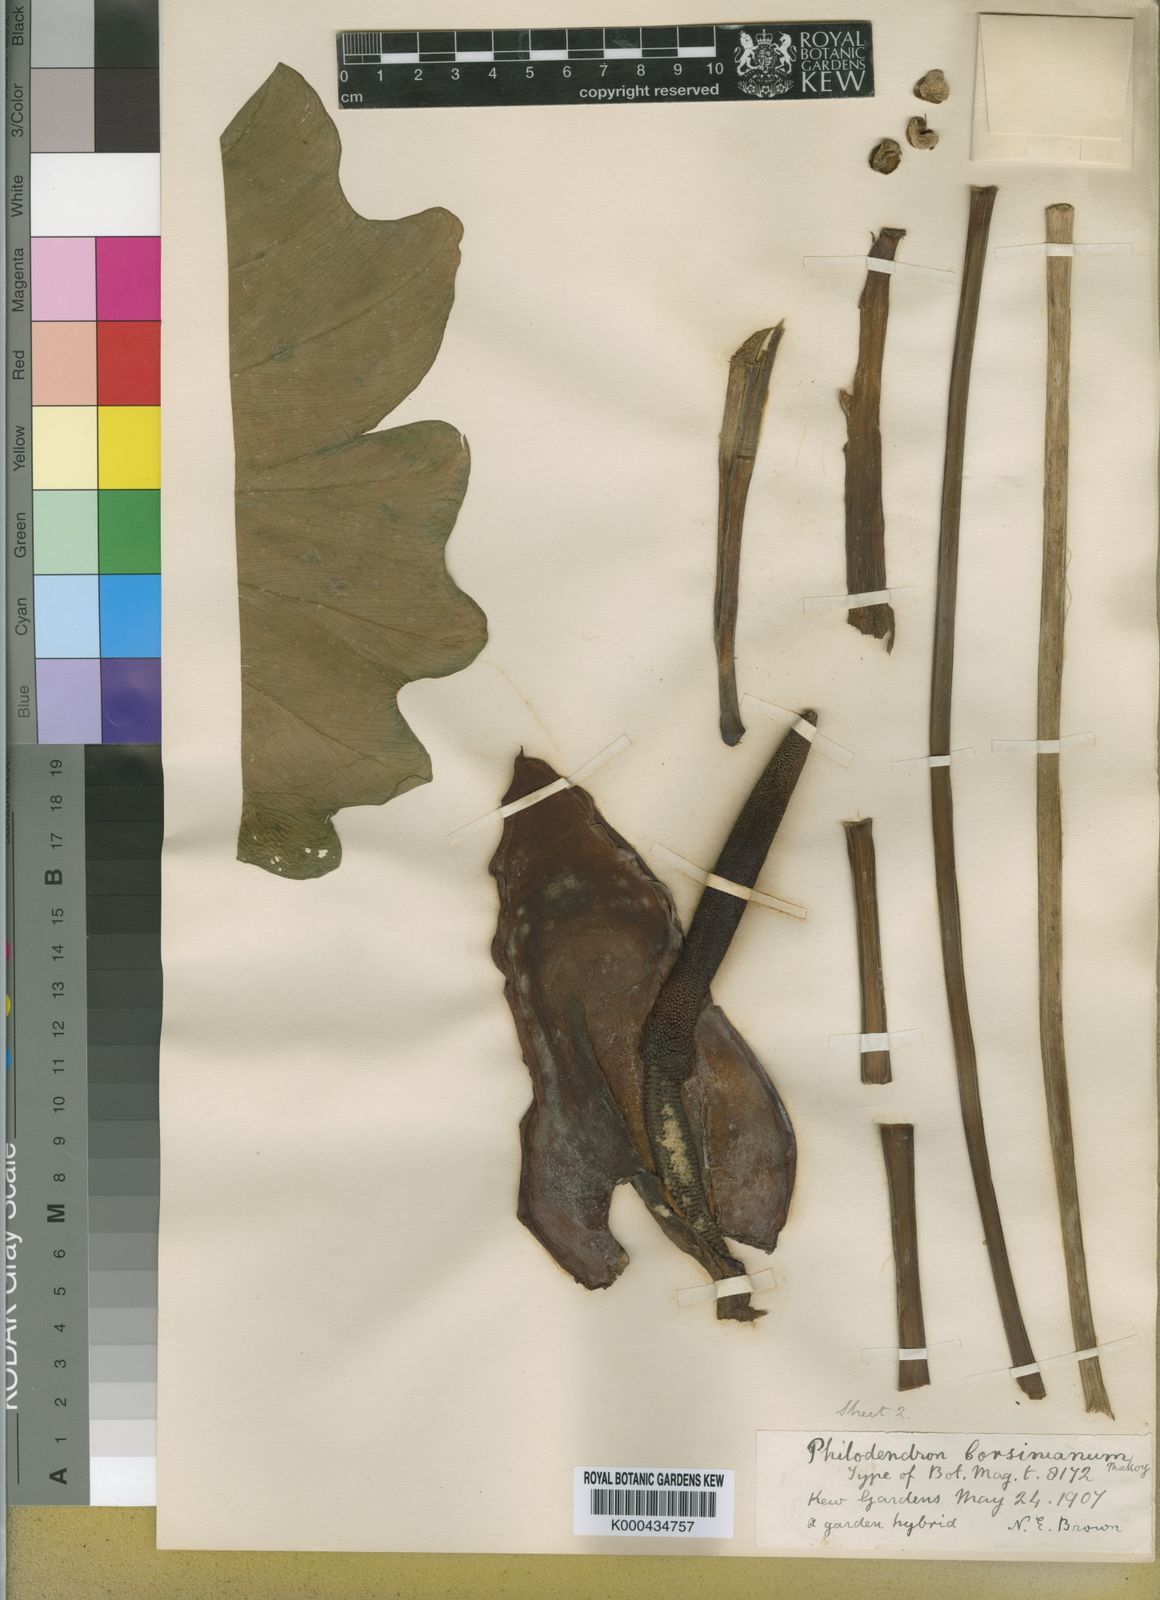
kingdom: Plantae
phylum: Tracheophyta
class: Liliopsida
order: Alismatales
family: Araceae
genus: Philodendron
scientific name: Philodendron
